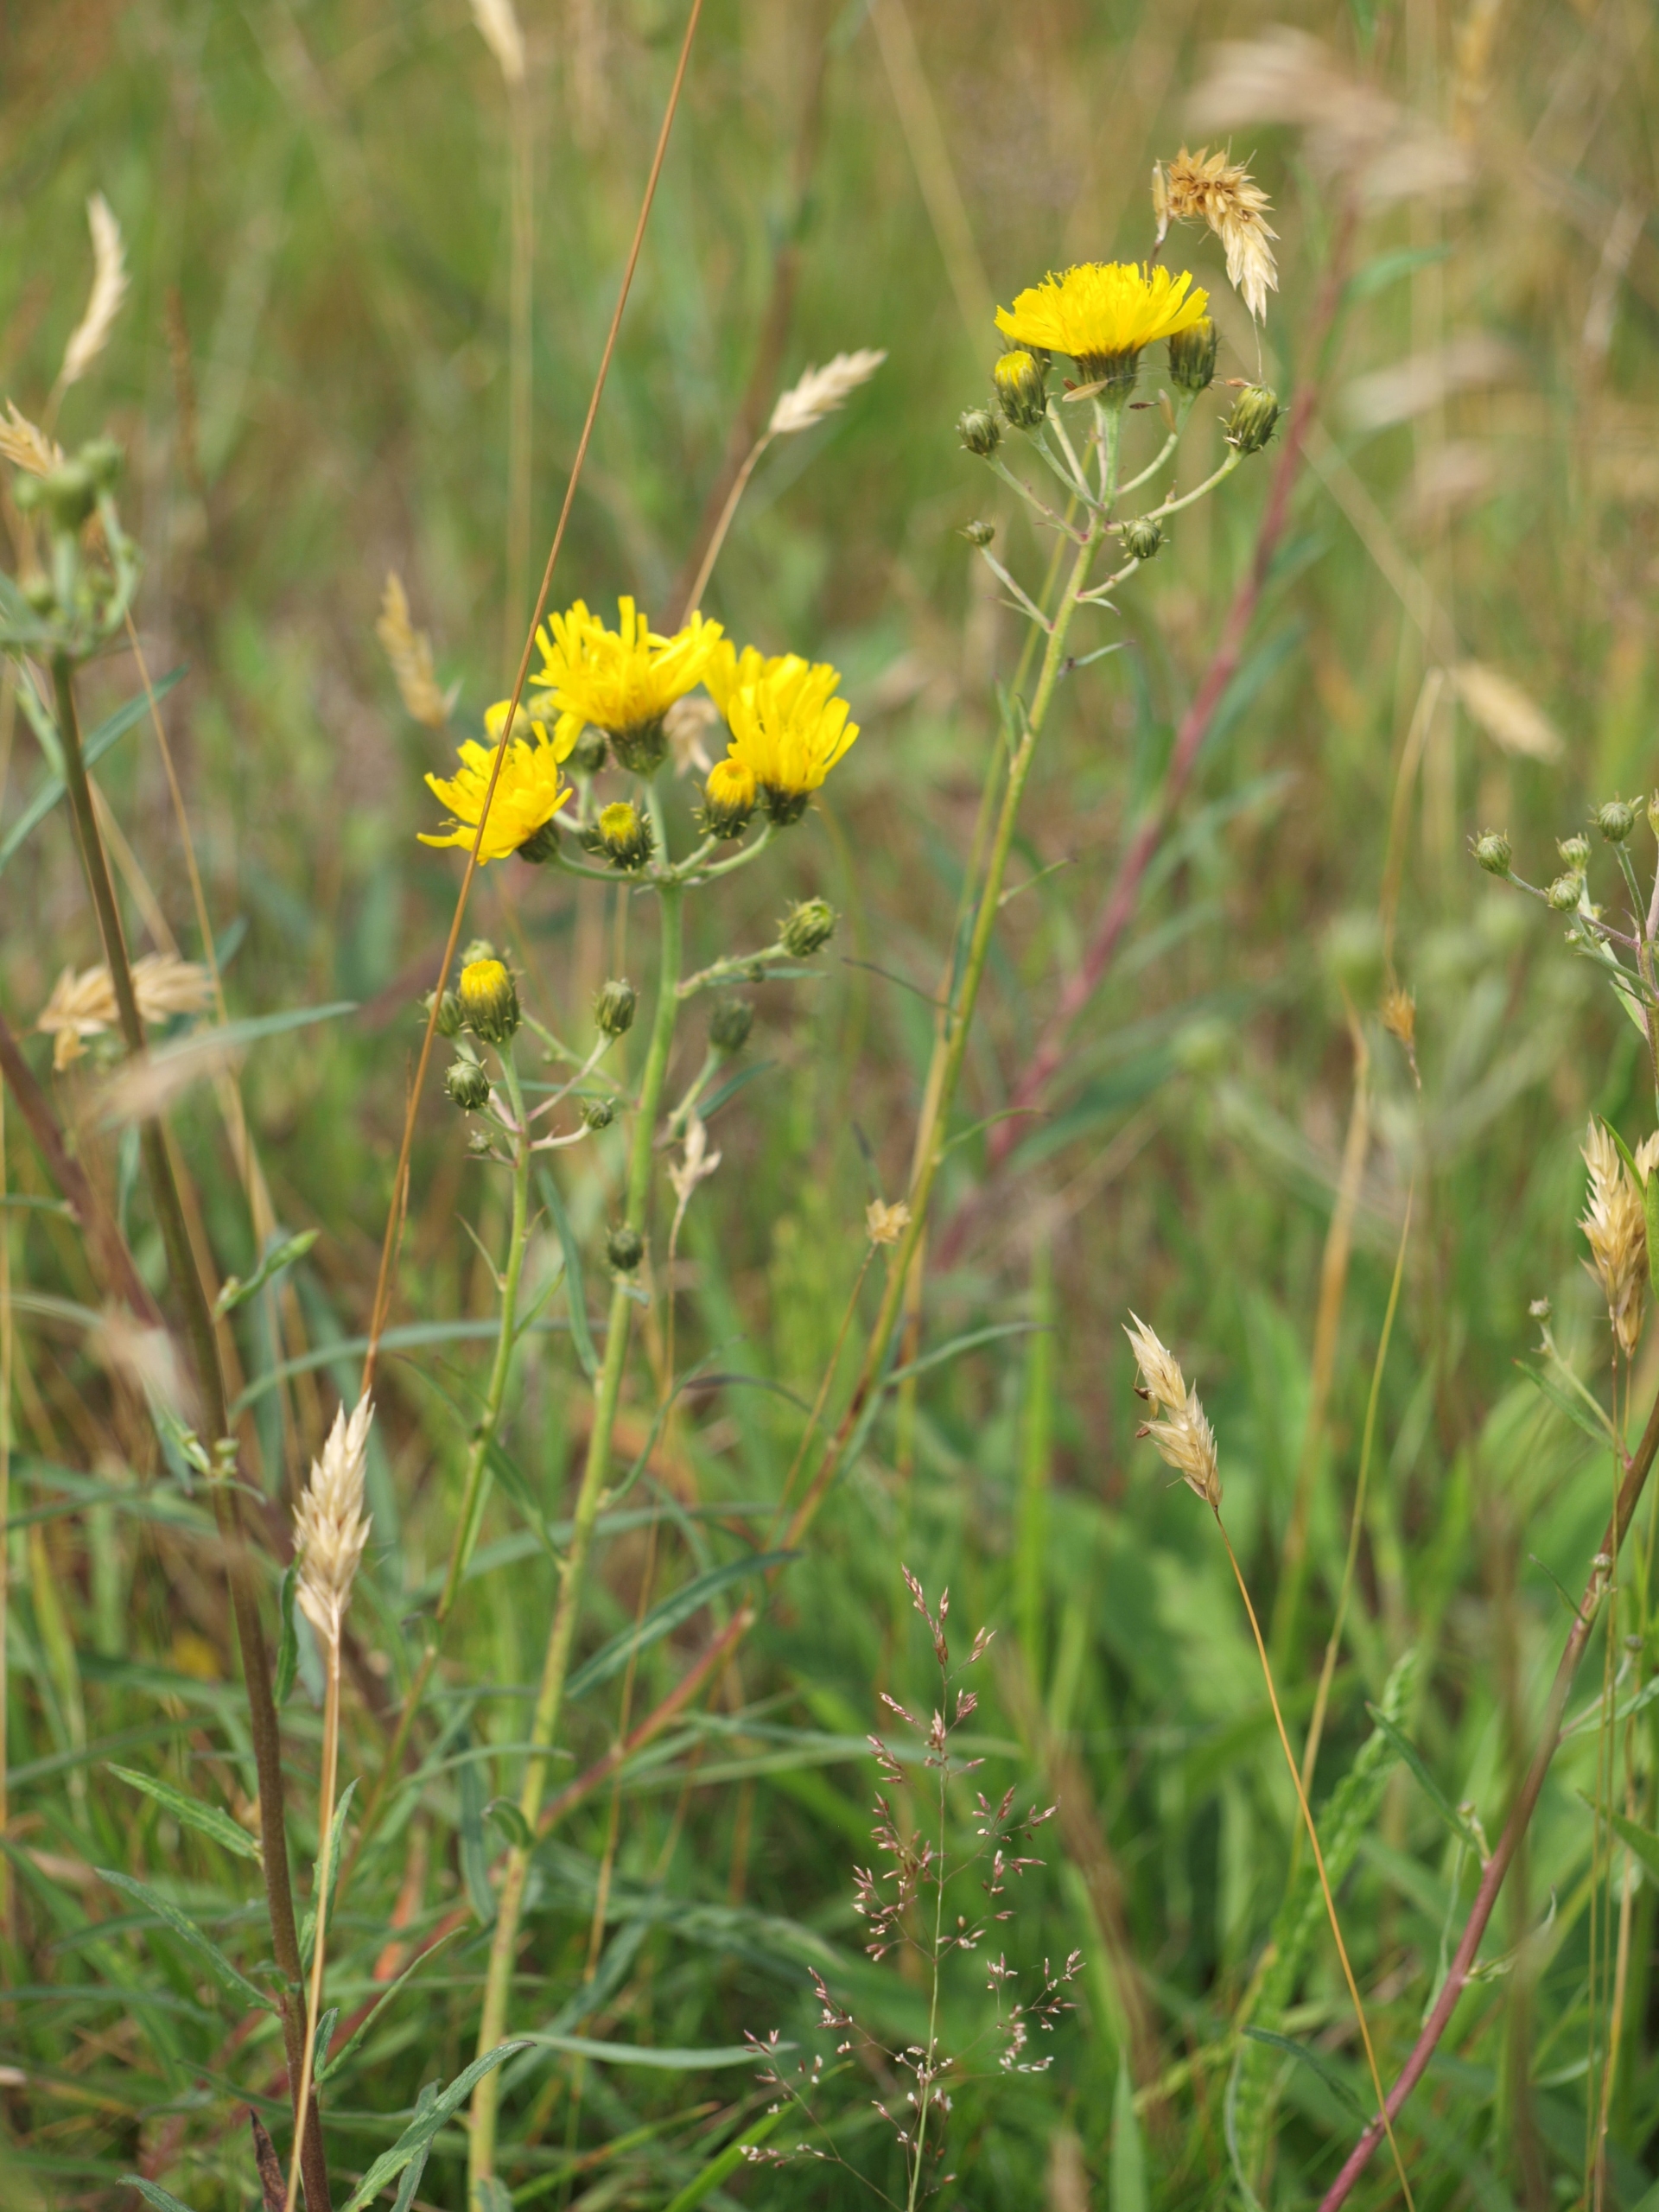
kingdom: Plantae
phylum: Tracheophyta
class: Magnoliopsida
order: Asterales
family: Asteraceae
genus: Hieracium
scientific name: Hieracium umbellatum
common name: Smalbladet høgeurt
